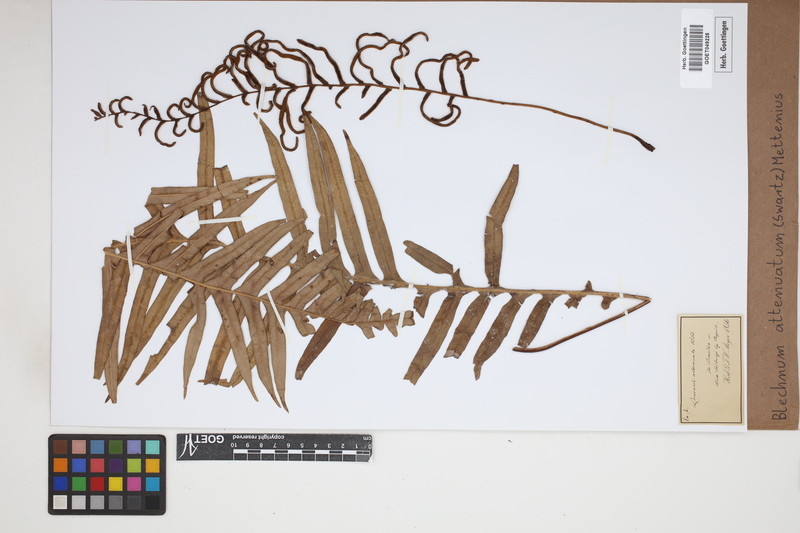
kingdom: Plantae
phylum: Tracheophyta
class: Polypodiopsida
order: Polypodiales
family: Blechnaceae
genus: Lomaridium
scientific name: Lomaridium attenuatum
